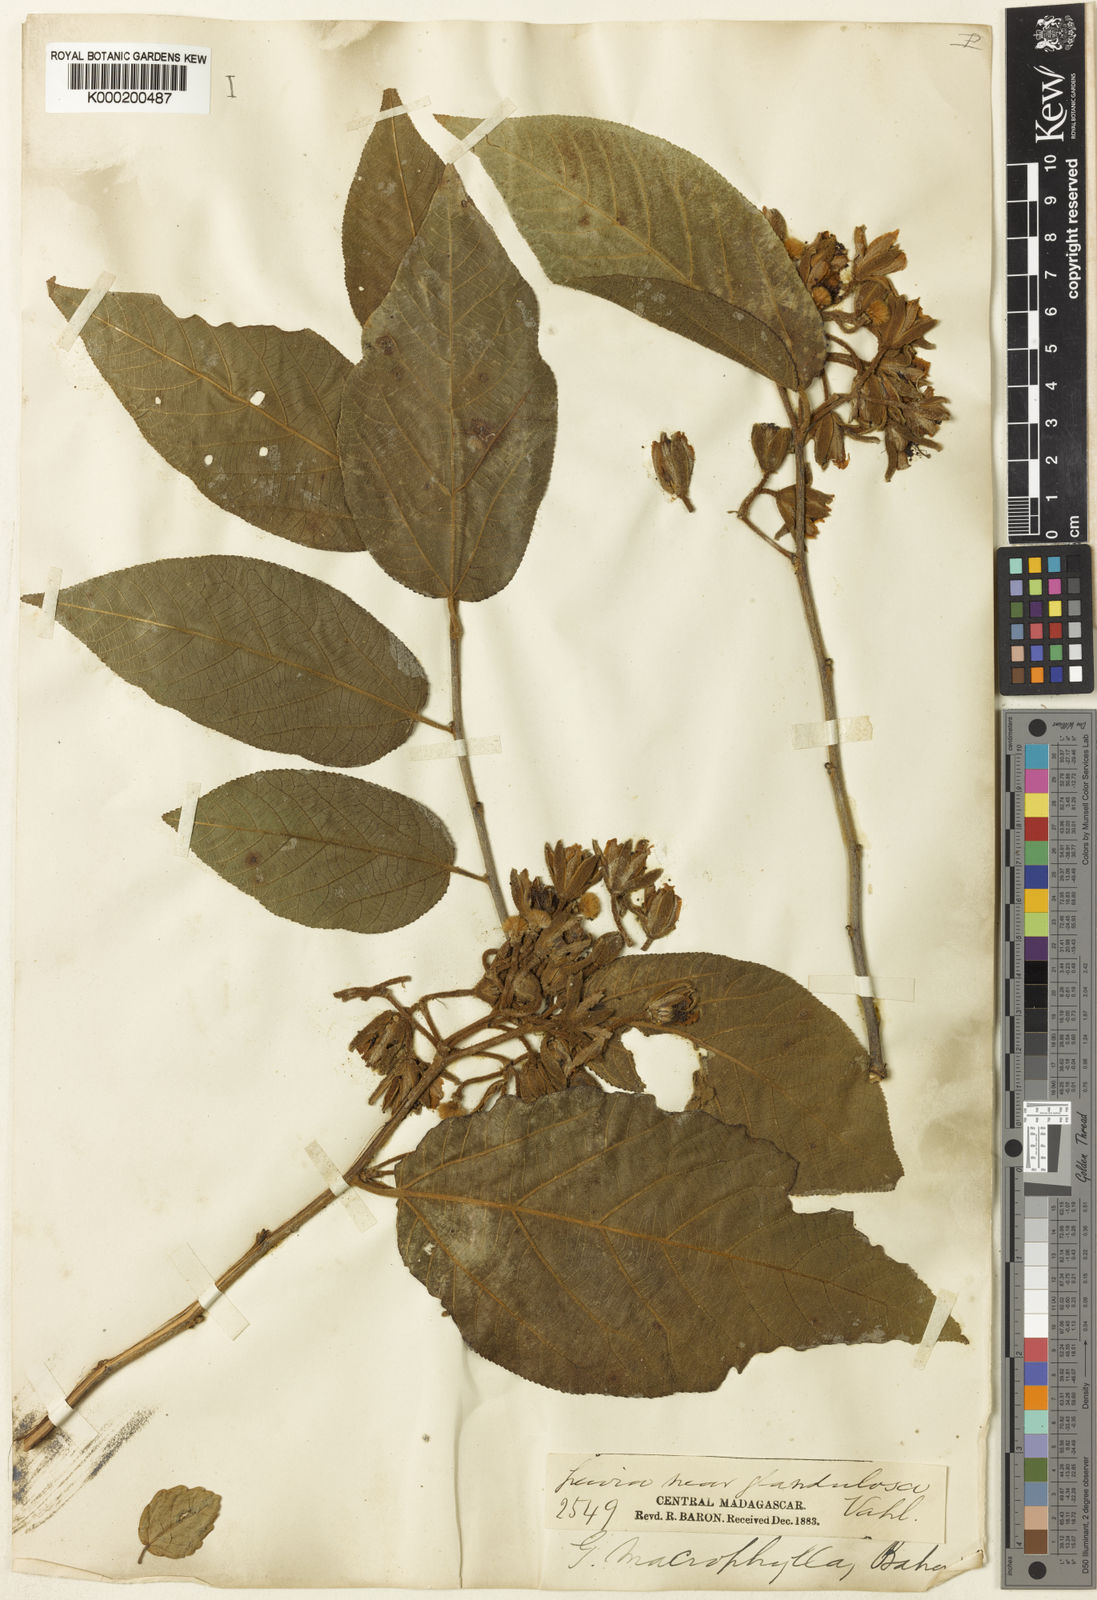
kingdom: Plantae
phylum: Tracheophyta
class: Magnoliopsida
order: Malvales
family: Malvaceae
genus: Grewia
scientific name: Grewia speciosa
